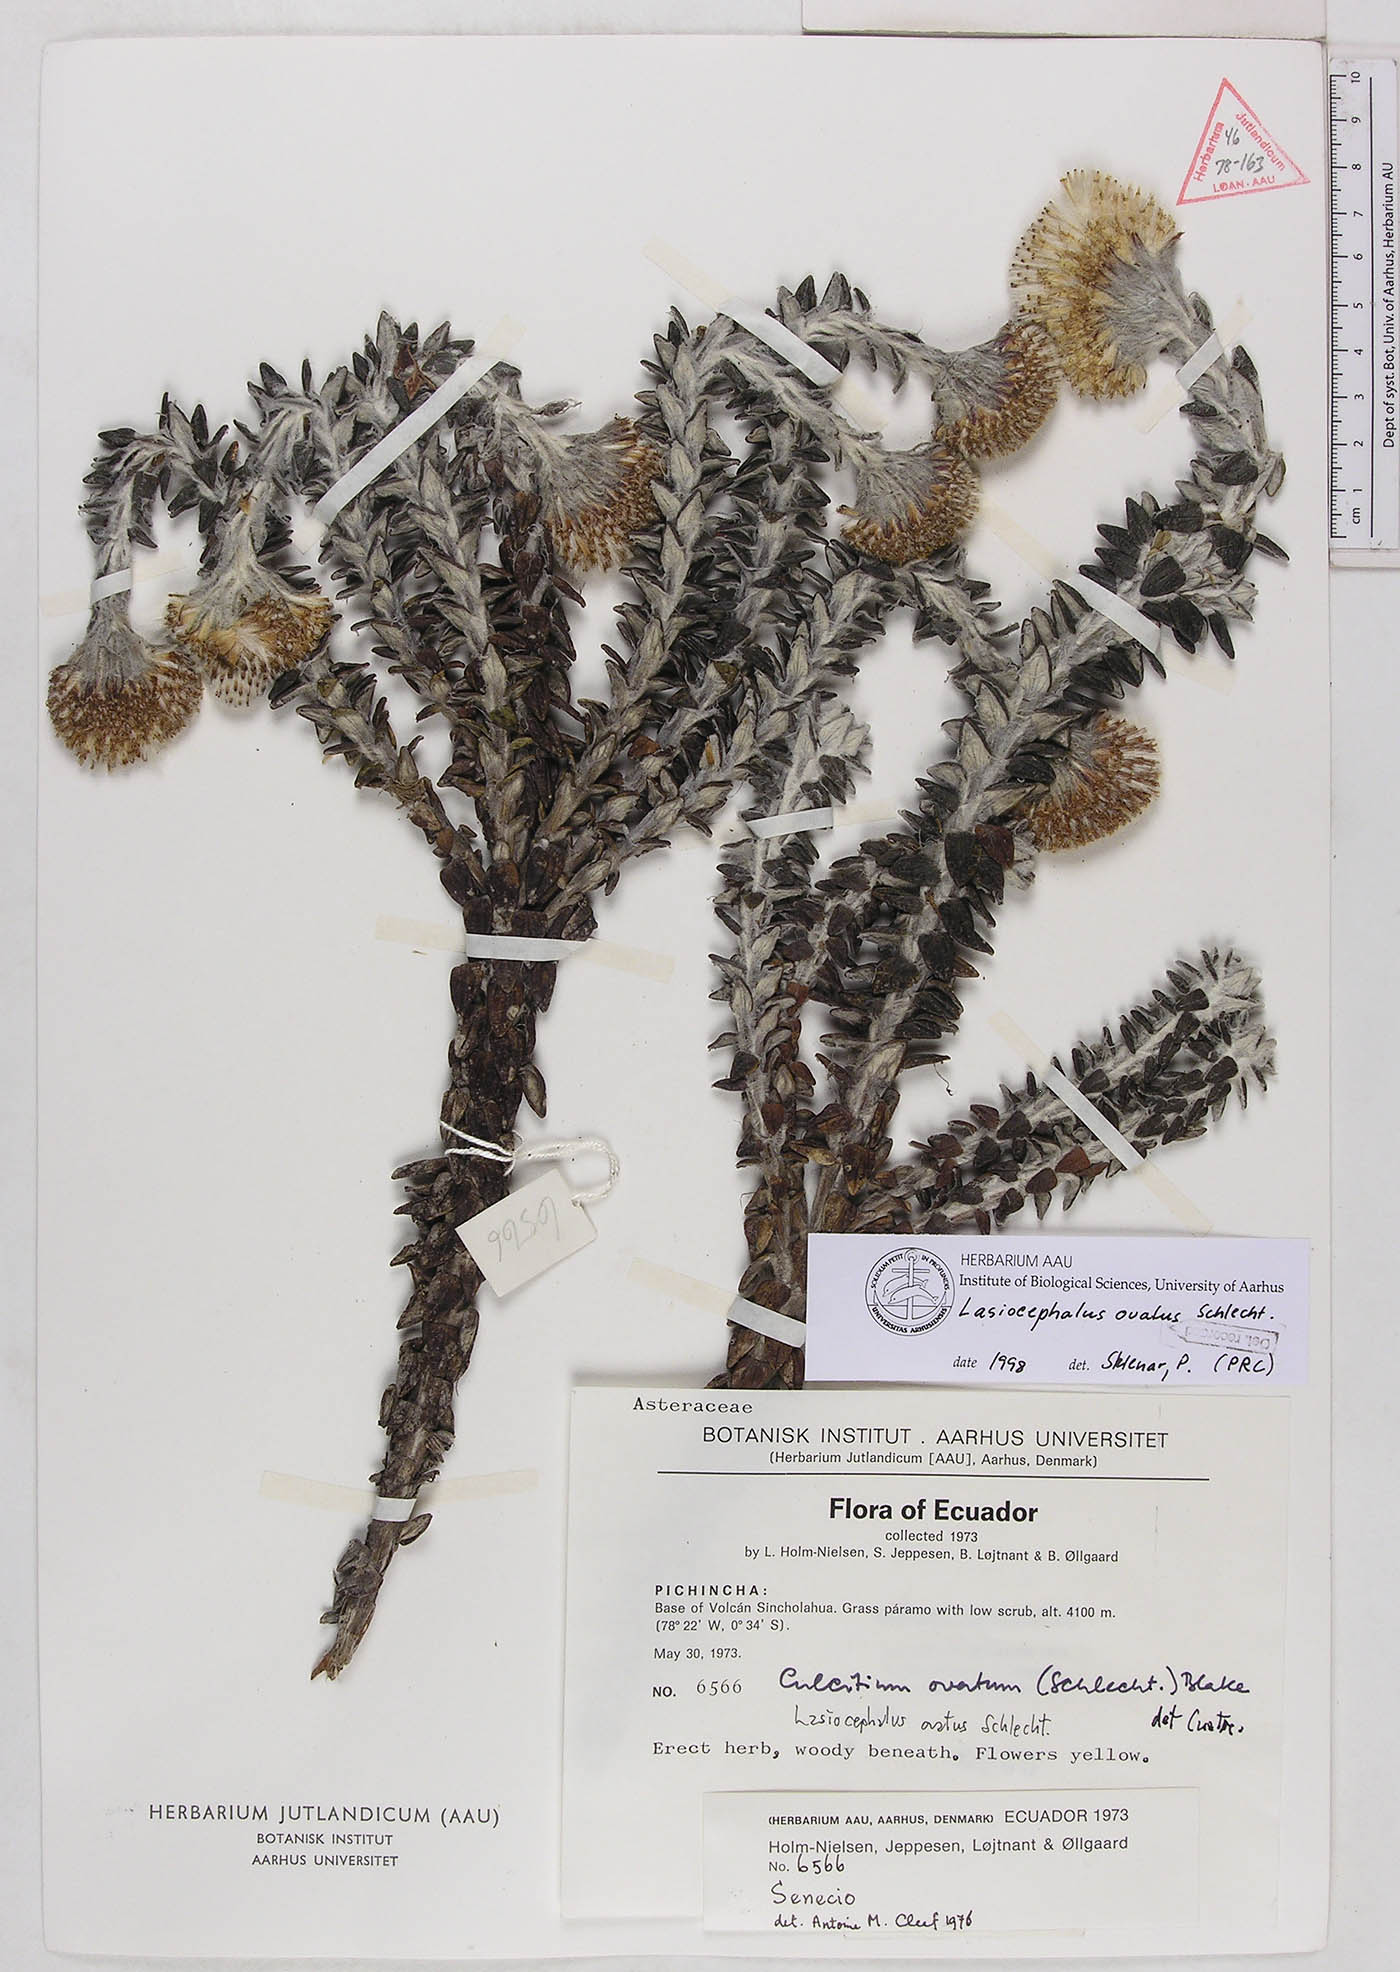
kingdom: Plantae
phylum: Tracheophyta
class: Magnoliopsida
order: Asterales
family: Asteraceae
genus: Lasiocephalus
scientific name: Lasiocephalus ovatus
